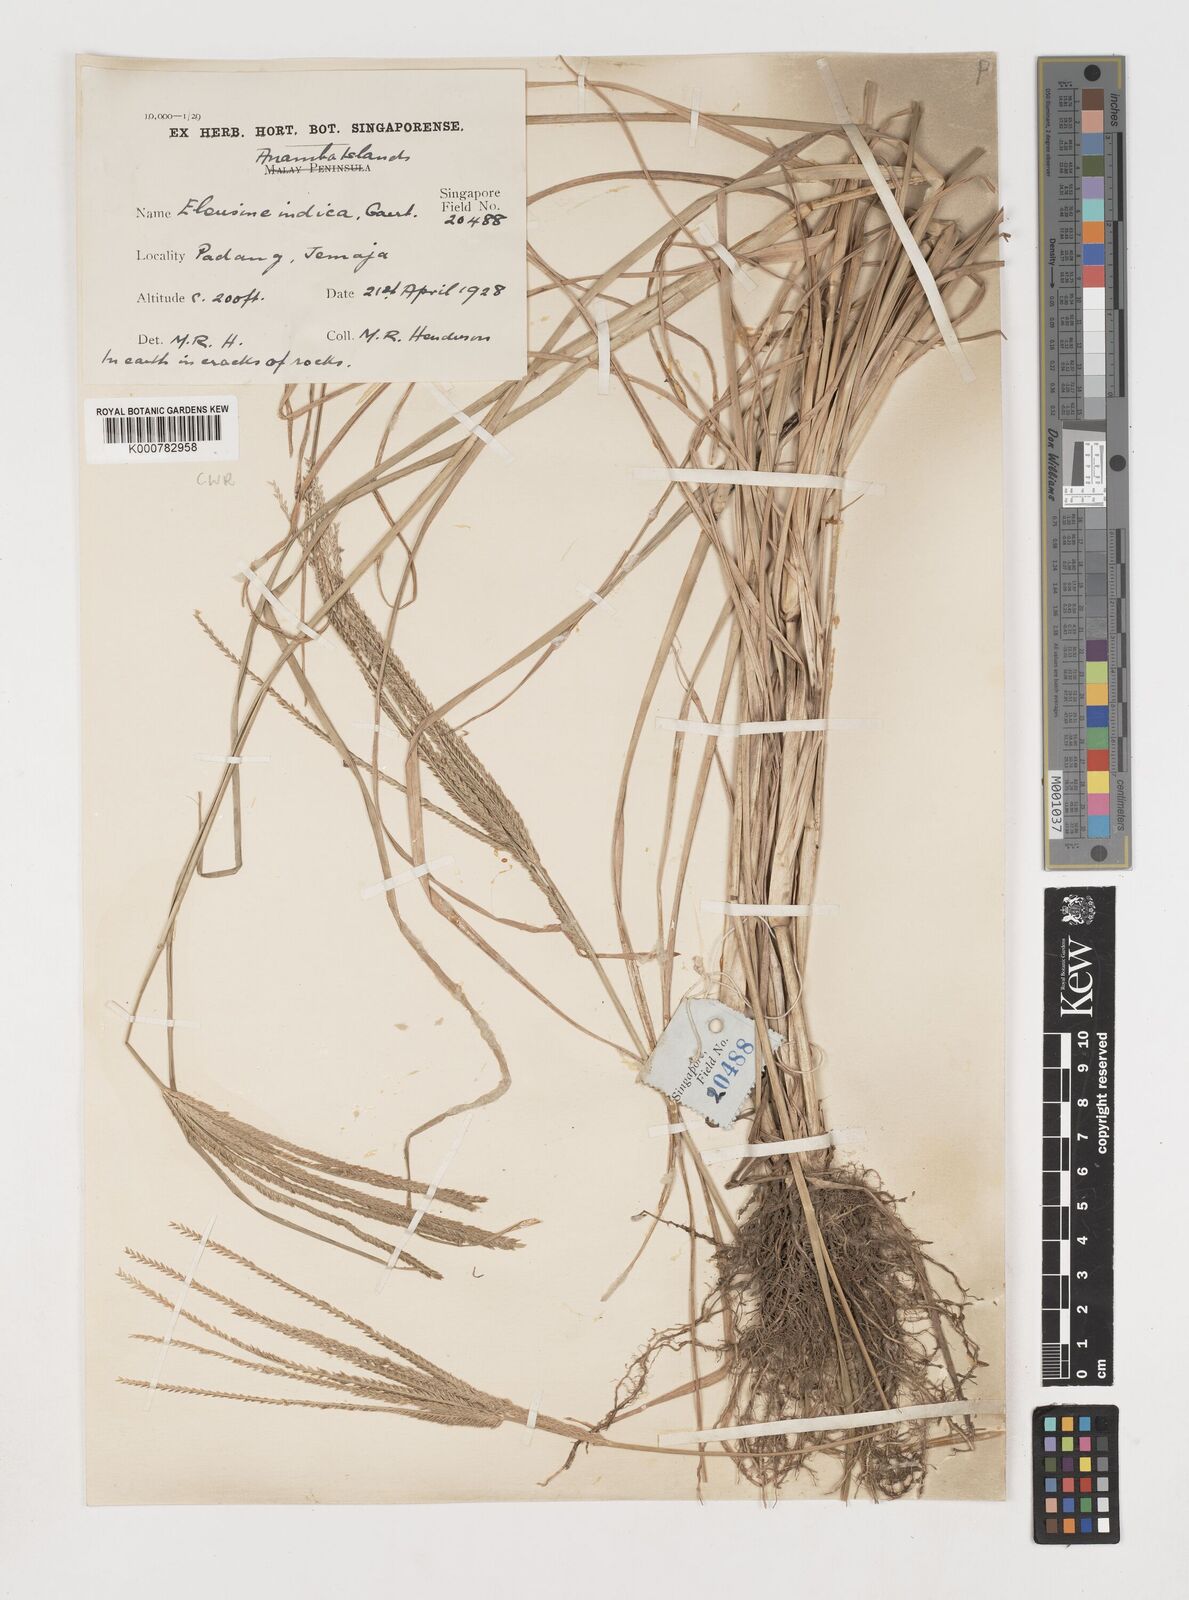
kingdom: Plantae
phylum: Tracheophyta
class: Liliopsida
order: Poales
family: Poaceae
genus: Eleusine
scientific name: Eleusine indica
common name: Yard-grass
